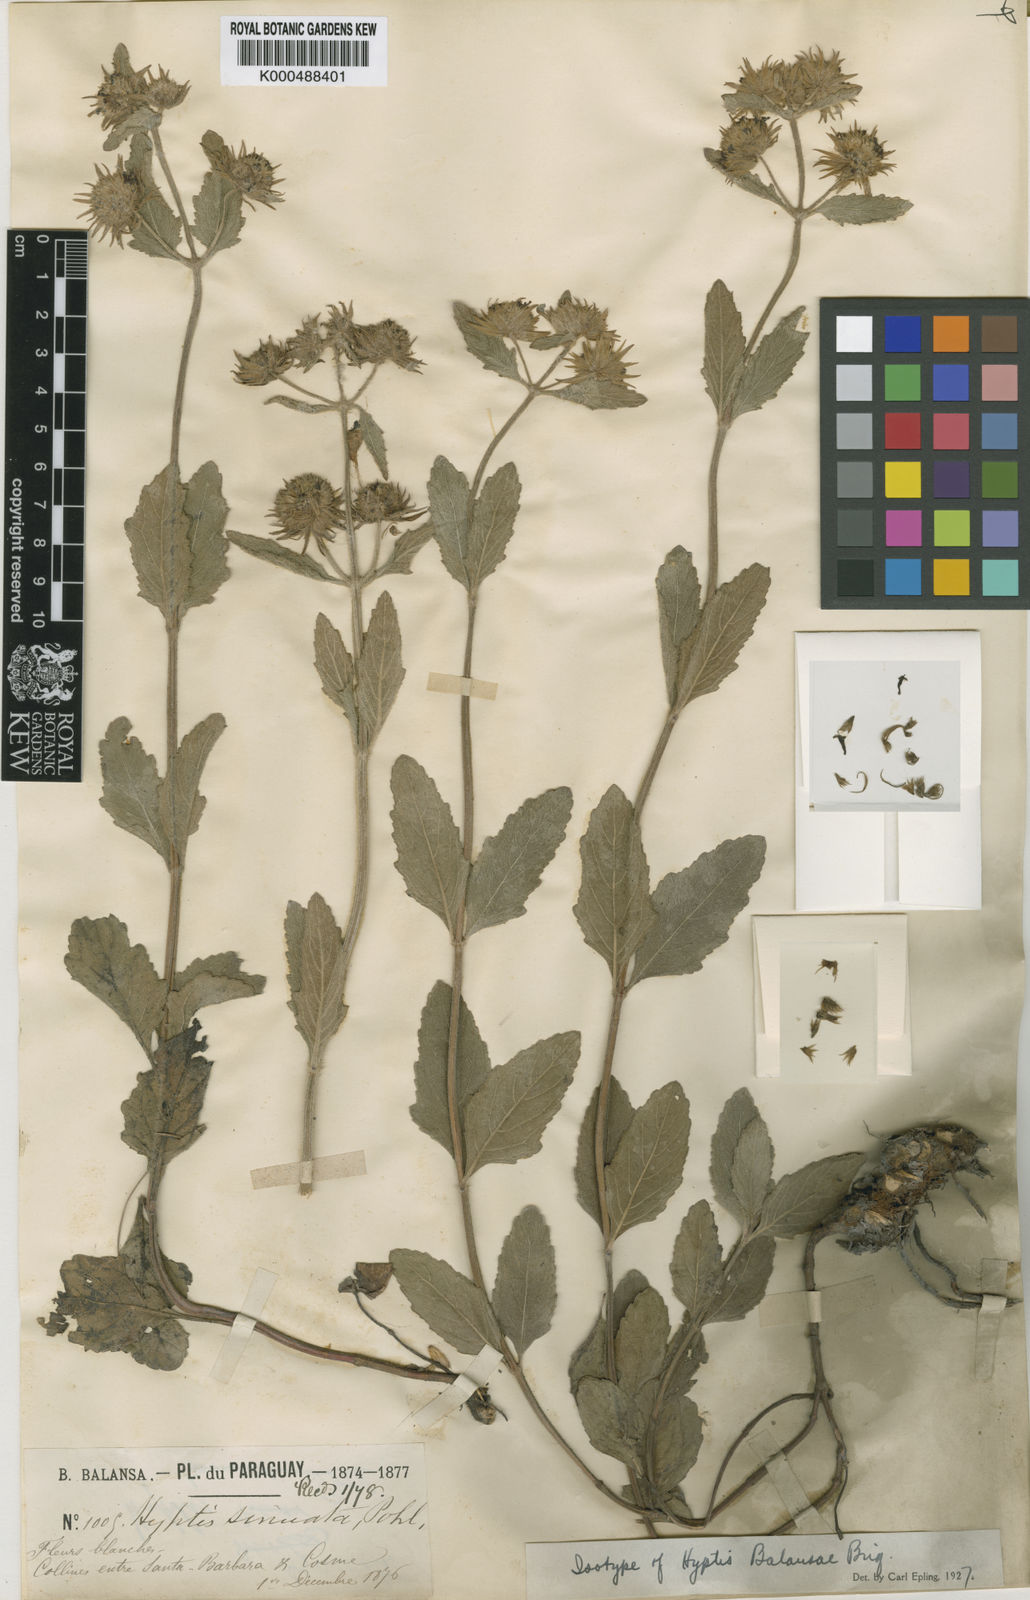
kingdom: Plantae
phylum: Tracheophyta
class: Magnoliopsida
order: Lamiales
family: Lamiaceae
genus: Hyptis
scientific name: Hyptis balansae
